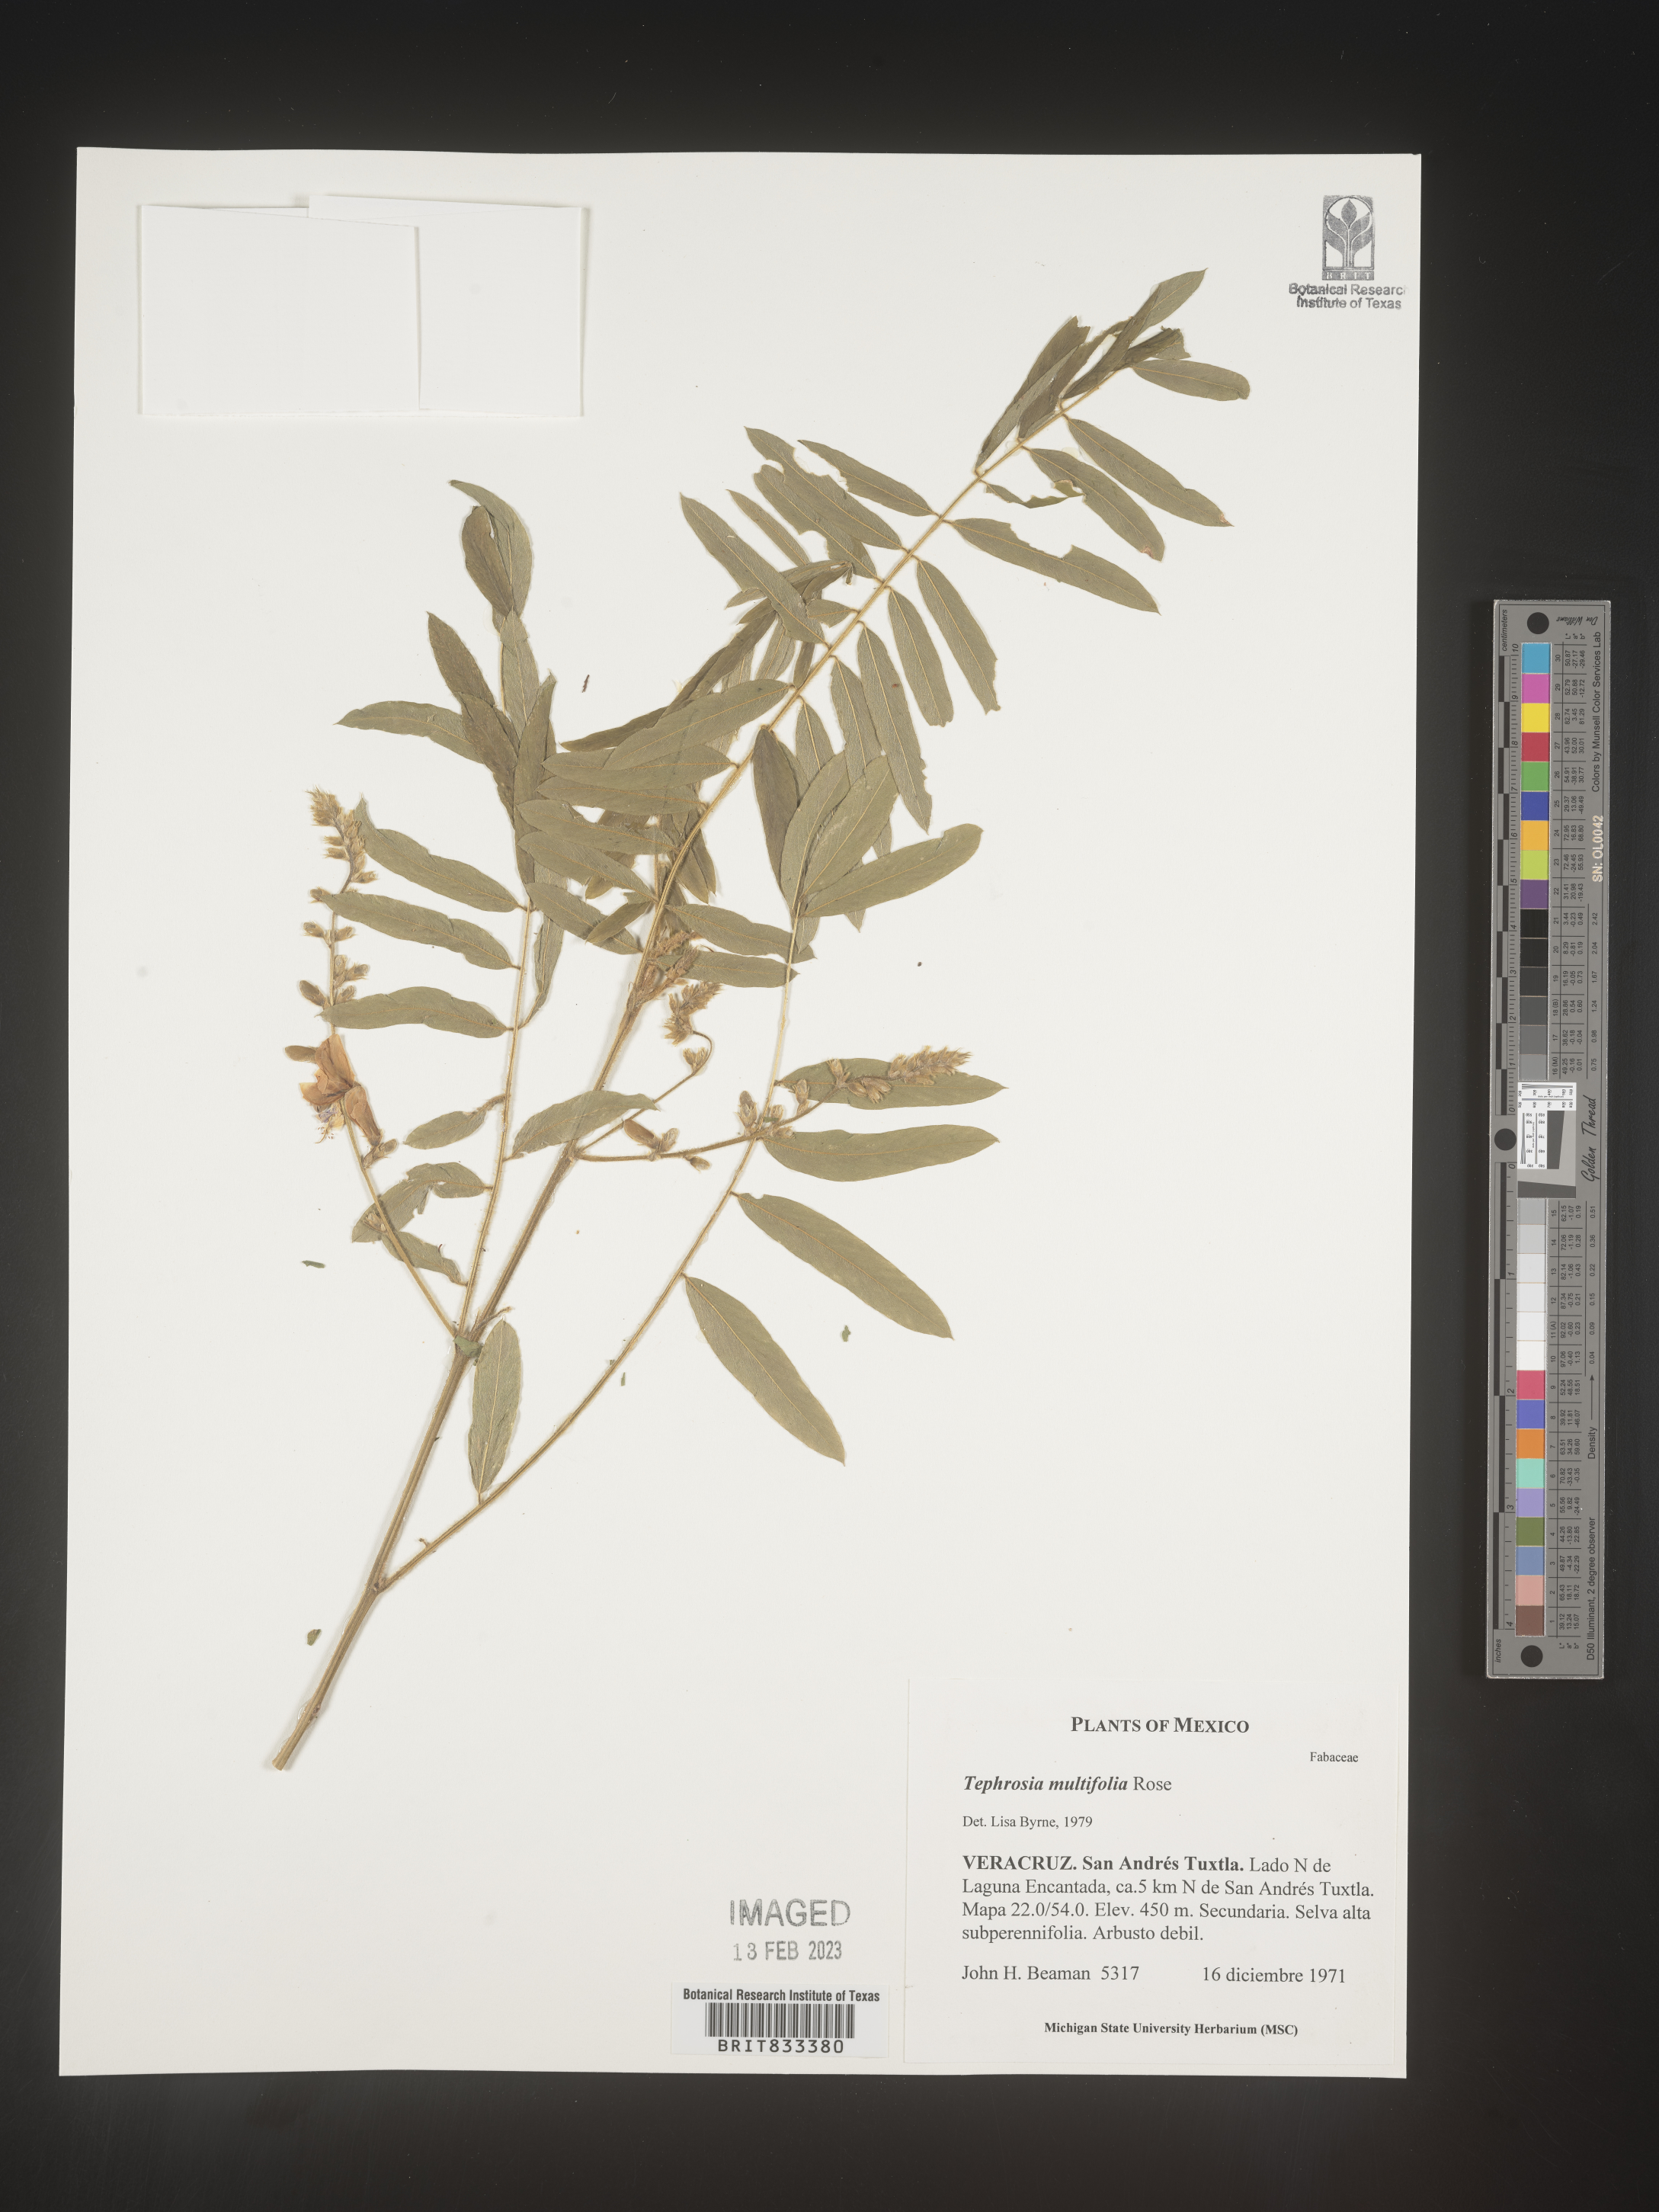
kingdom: Plantae
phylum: Tracheophyta
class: Magnoliopsida
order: Fabales
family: Fabaceae
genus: Tephrosia
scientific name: Tephrosia
